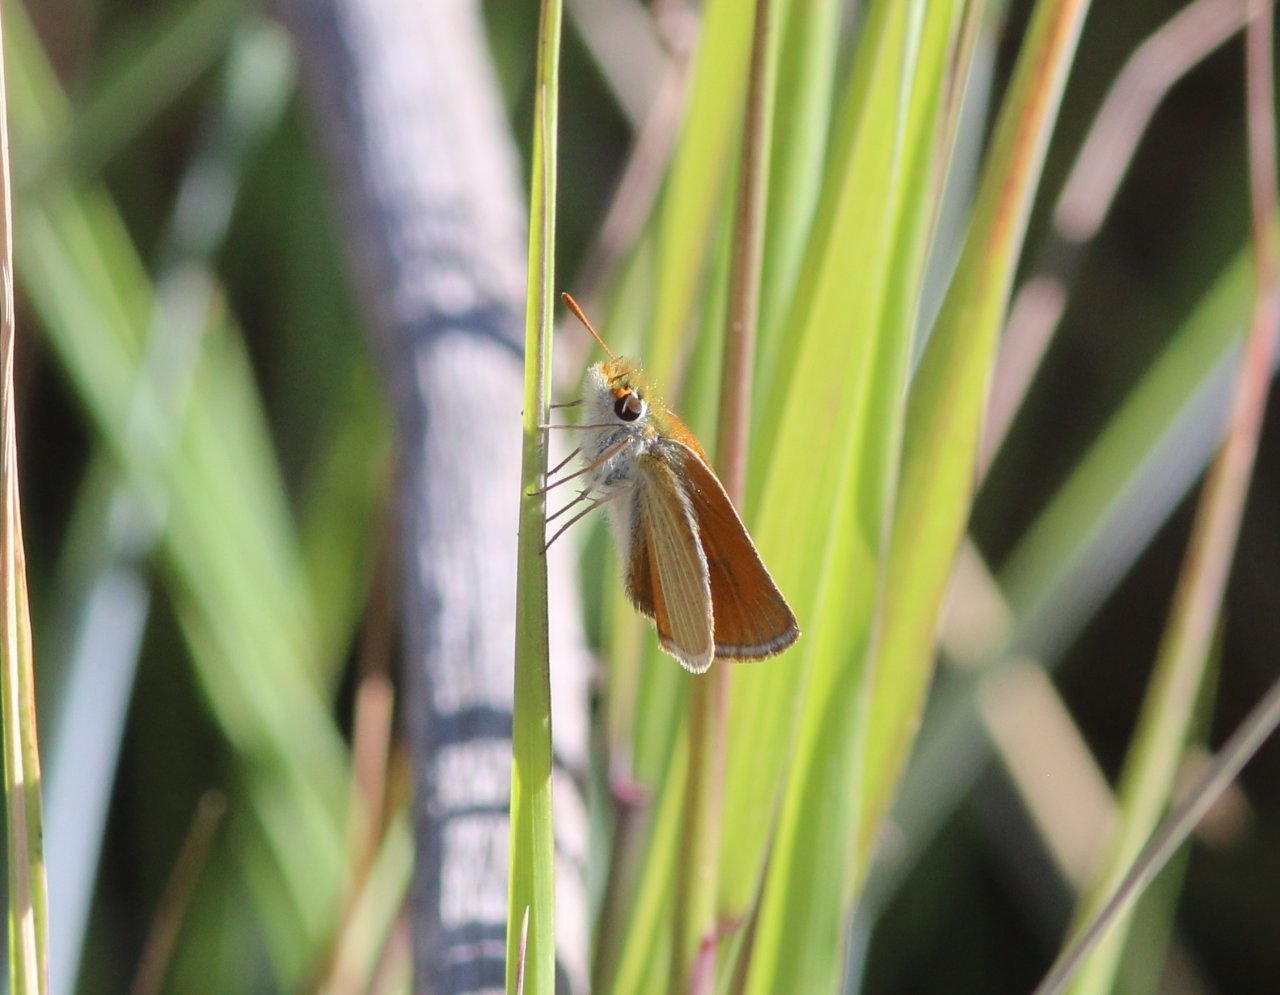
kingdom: Animalia
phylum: Arthropoda
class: Insecta
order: Lepidoptera
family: Hesperiidae
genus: Oarisma
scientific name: Oarisma garita
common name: Garita Skipperling
